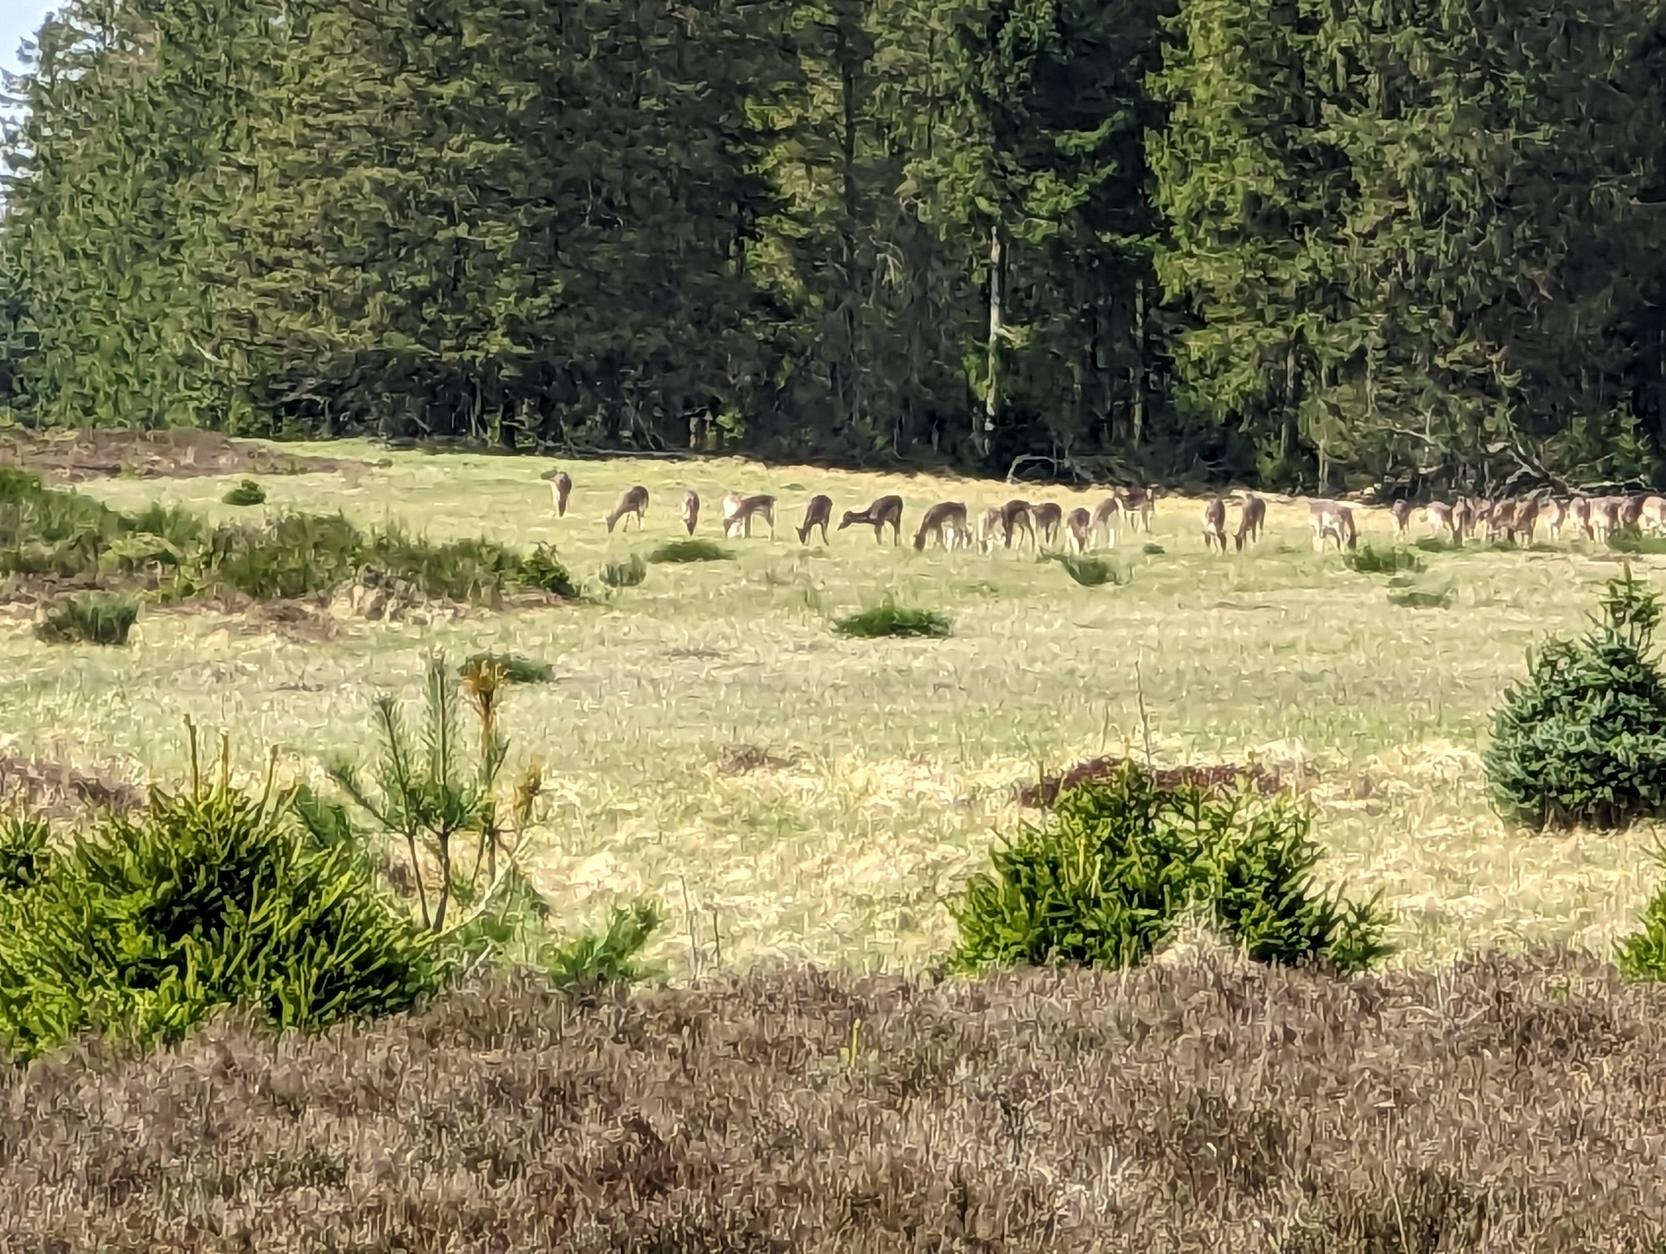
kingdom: Animalia
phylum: Chordata
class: Mammalia
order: Artiodactyla
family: Cervidae
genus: Cervus
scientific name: Cervus elaphus
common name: Krondyr
